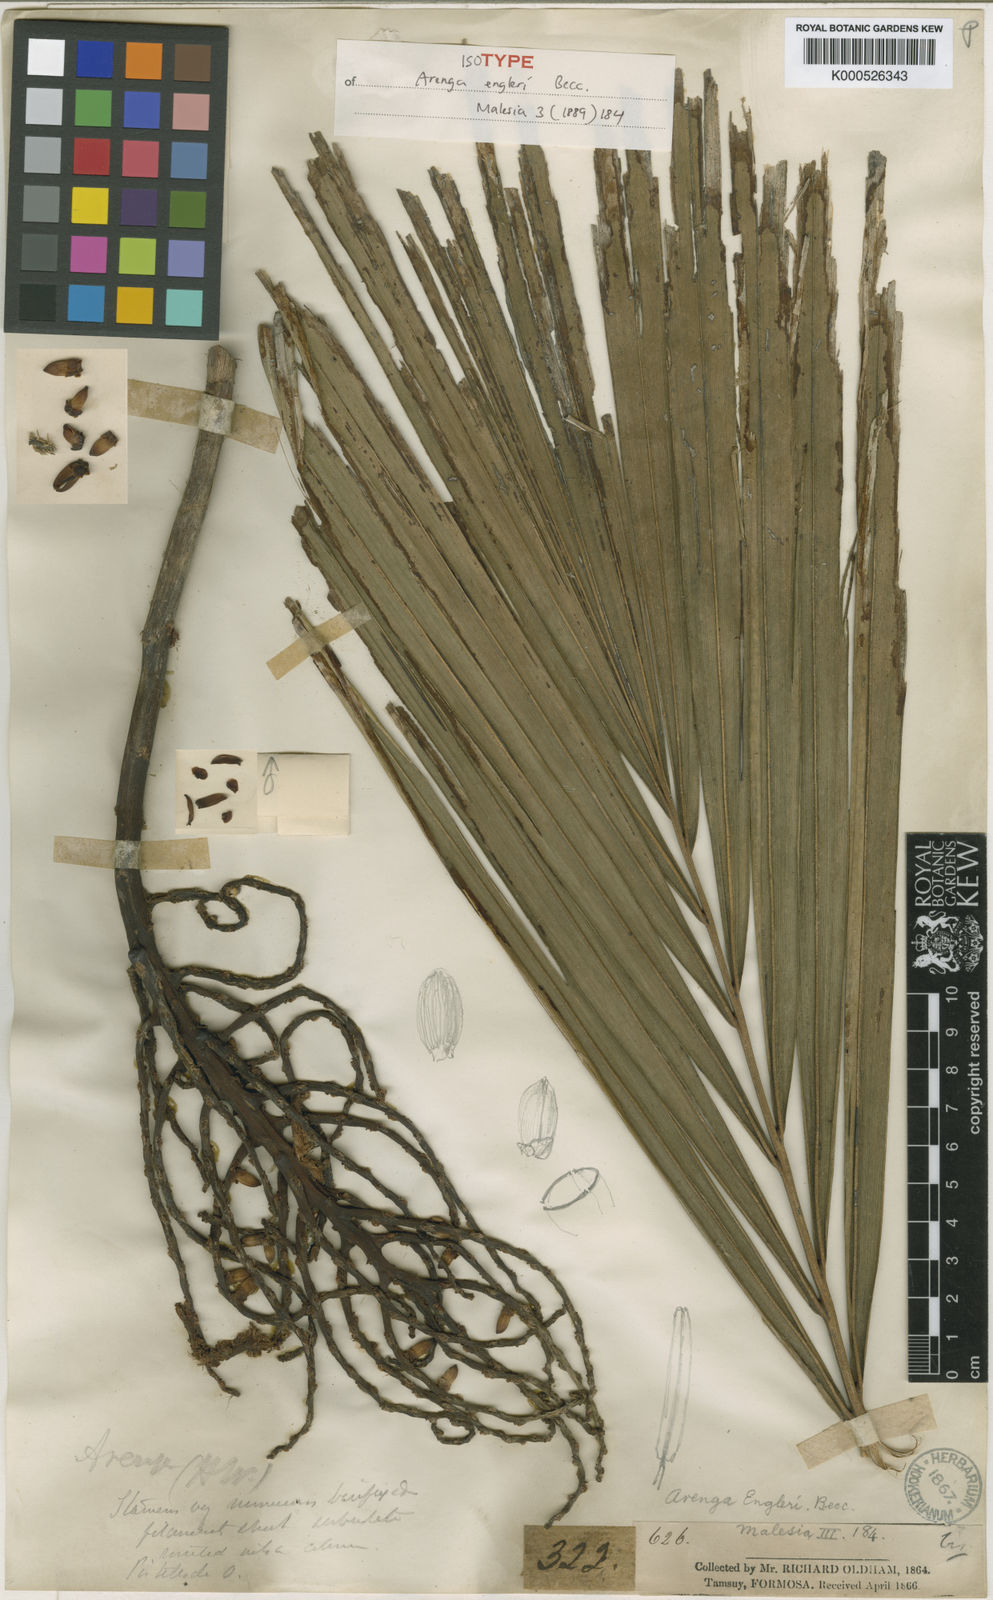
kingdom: Plantae
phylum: Tracheophyta
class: Liliopsida
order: Arecales
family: Arecaceae
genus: Arenga
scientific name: Arenga engleri
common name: Formosan sugar palm
